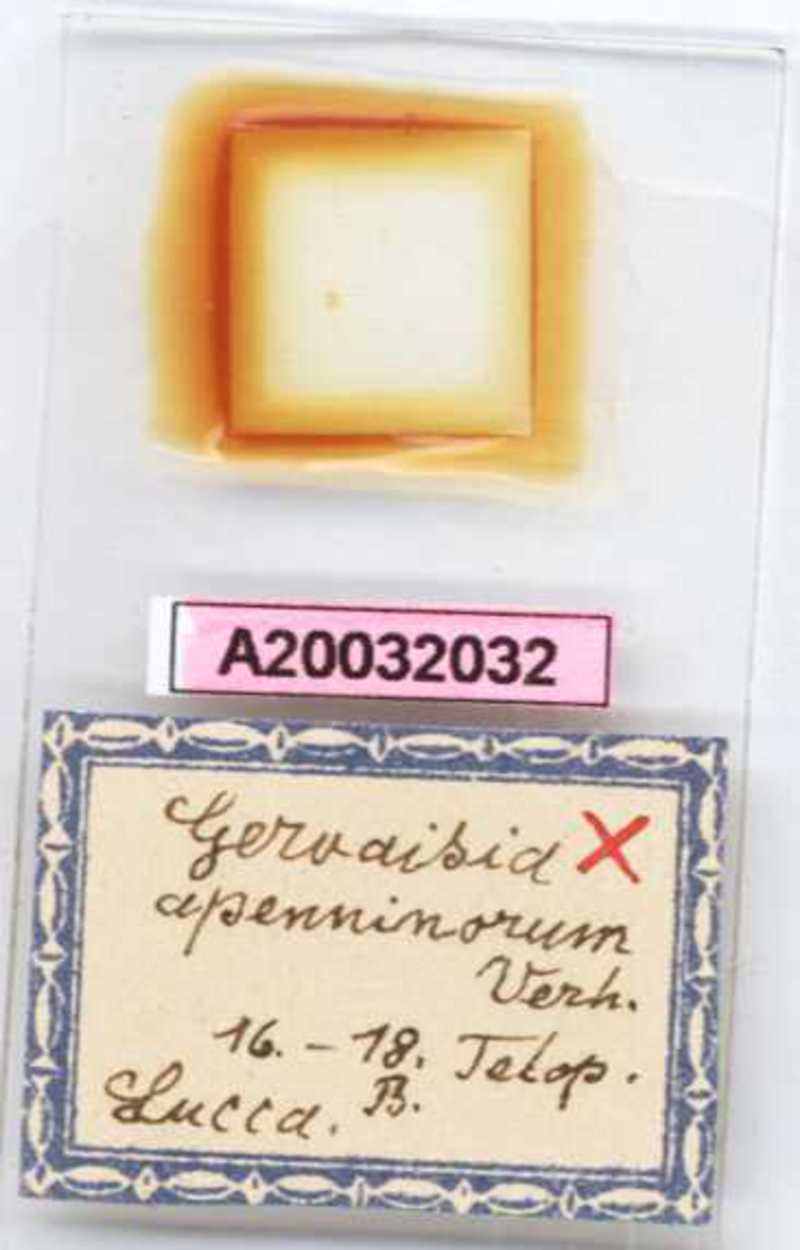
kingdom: Animalia
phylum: Arthropoda
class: Diplopoda
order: Glomerida
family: Glomeridae
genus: Trachysphaera
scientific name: Trachysphaera apenninorum
